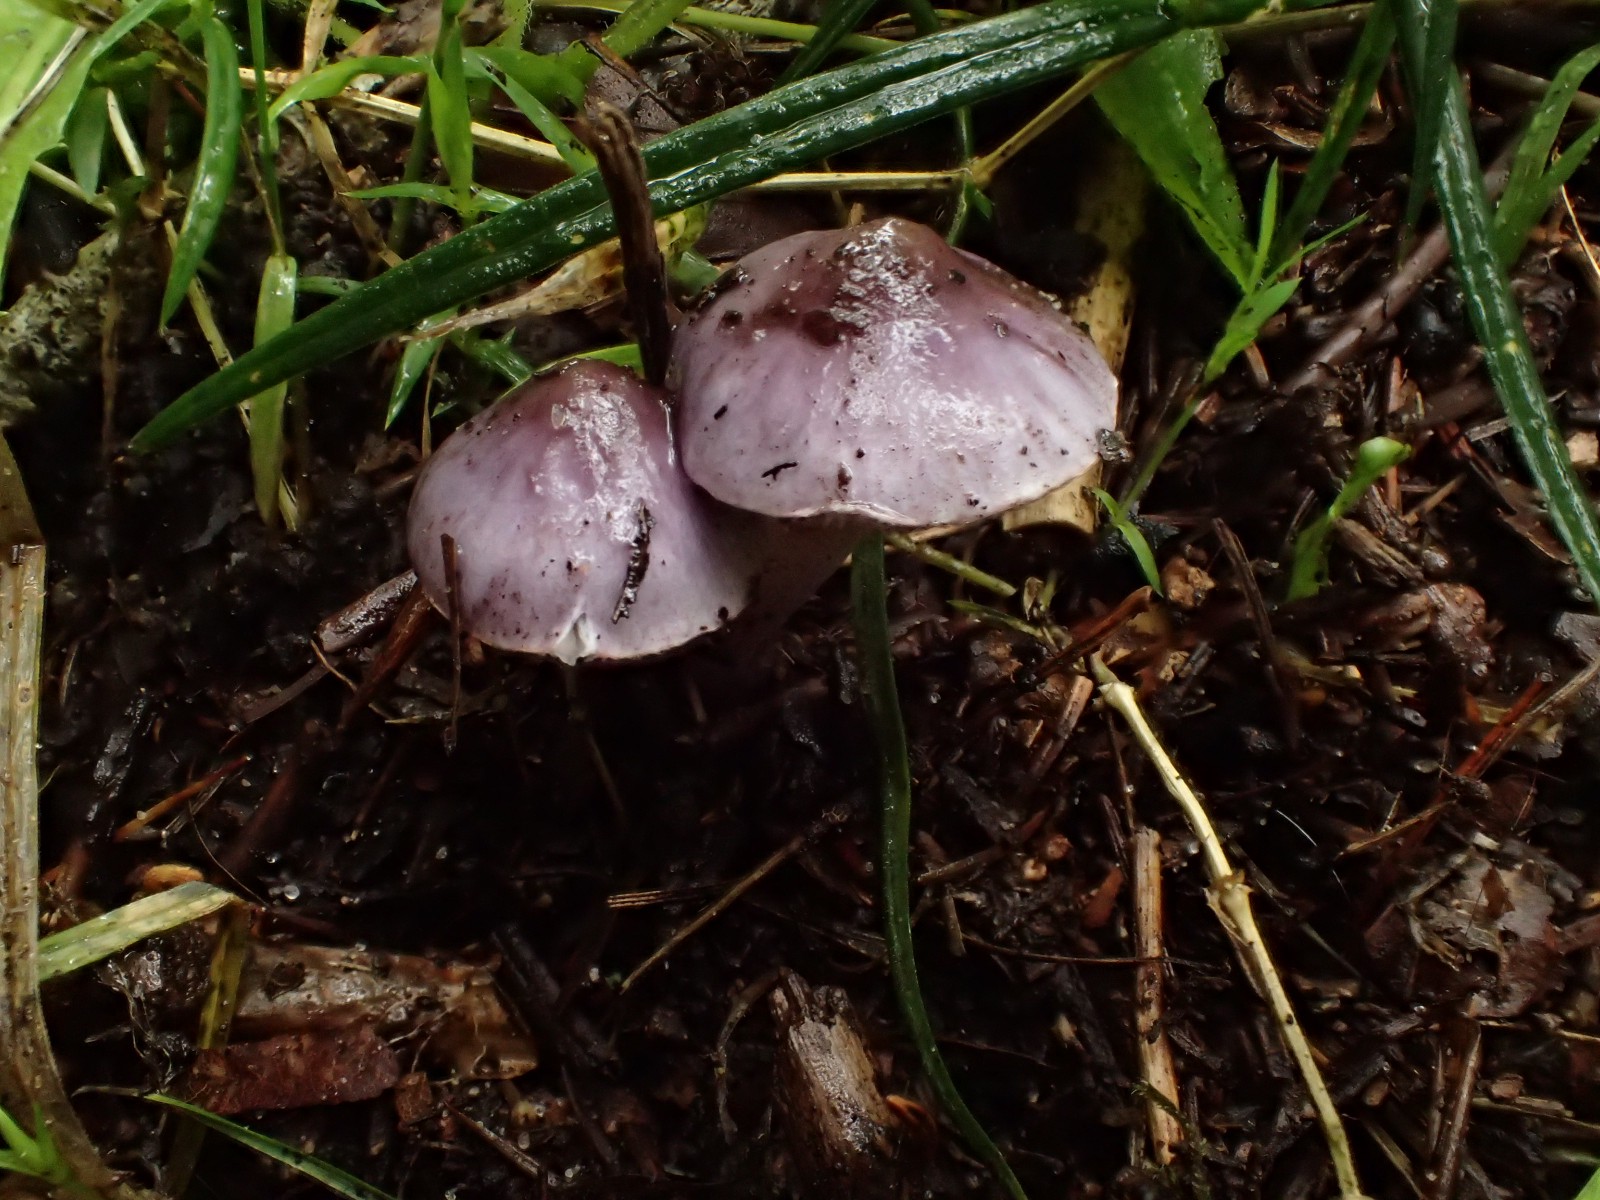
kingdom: Fungi
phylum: Basidiomycota
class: Agaricomycetes
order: Agaricales
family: Inocybaceae
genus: Inocybe
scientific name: Inocybe geophylla
